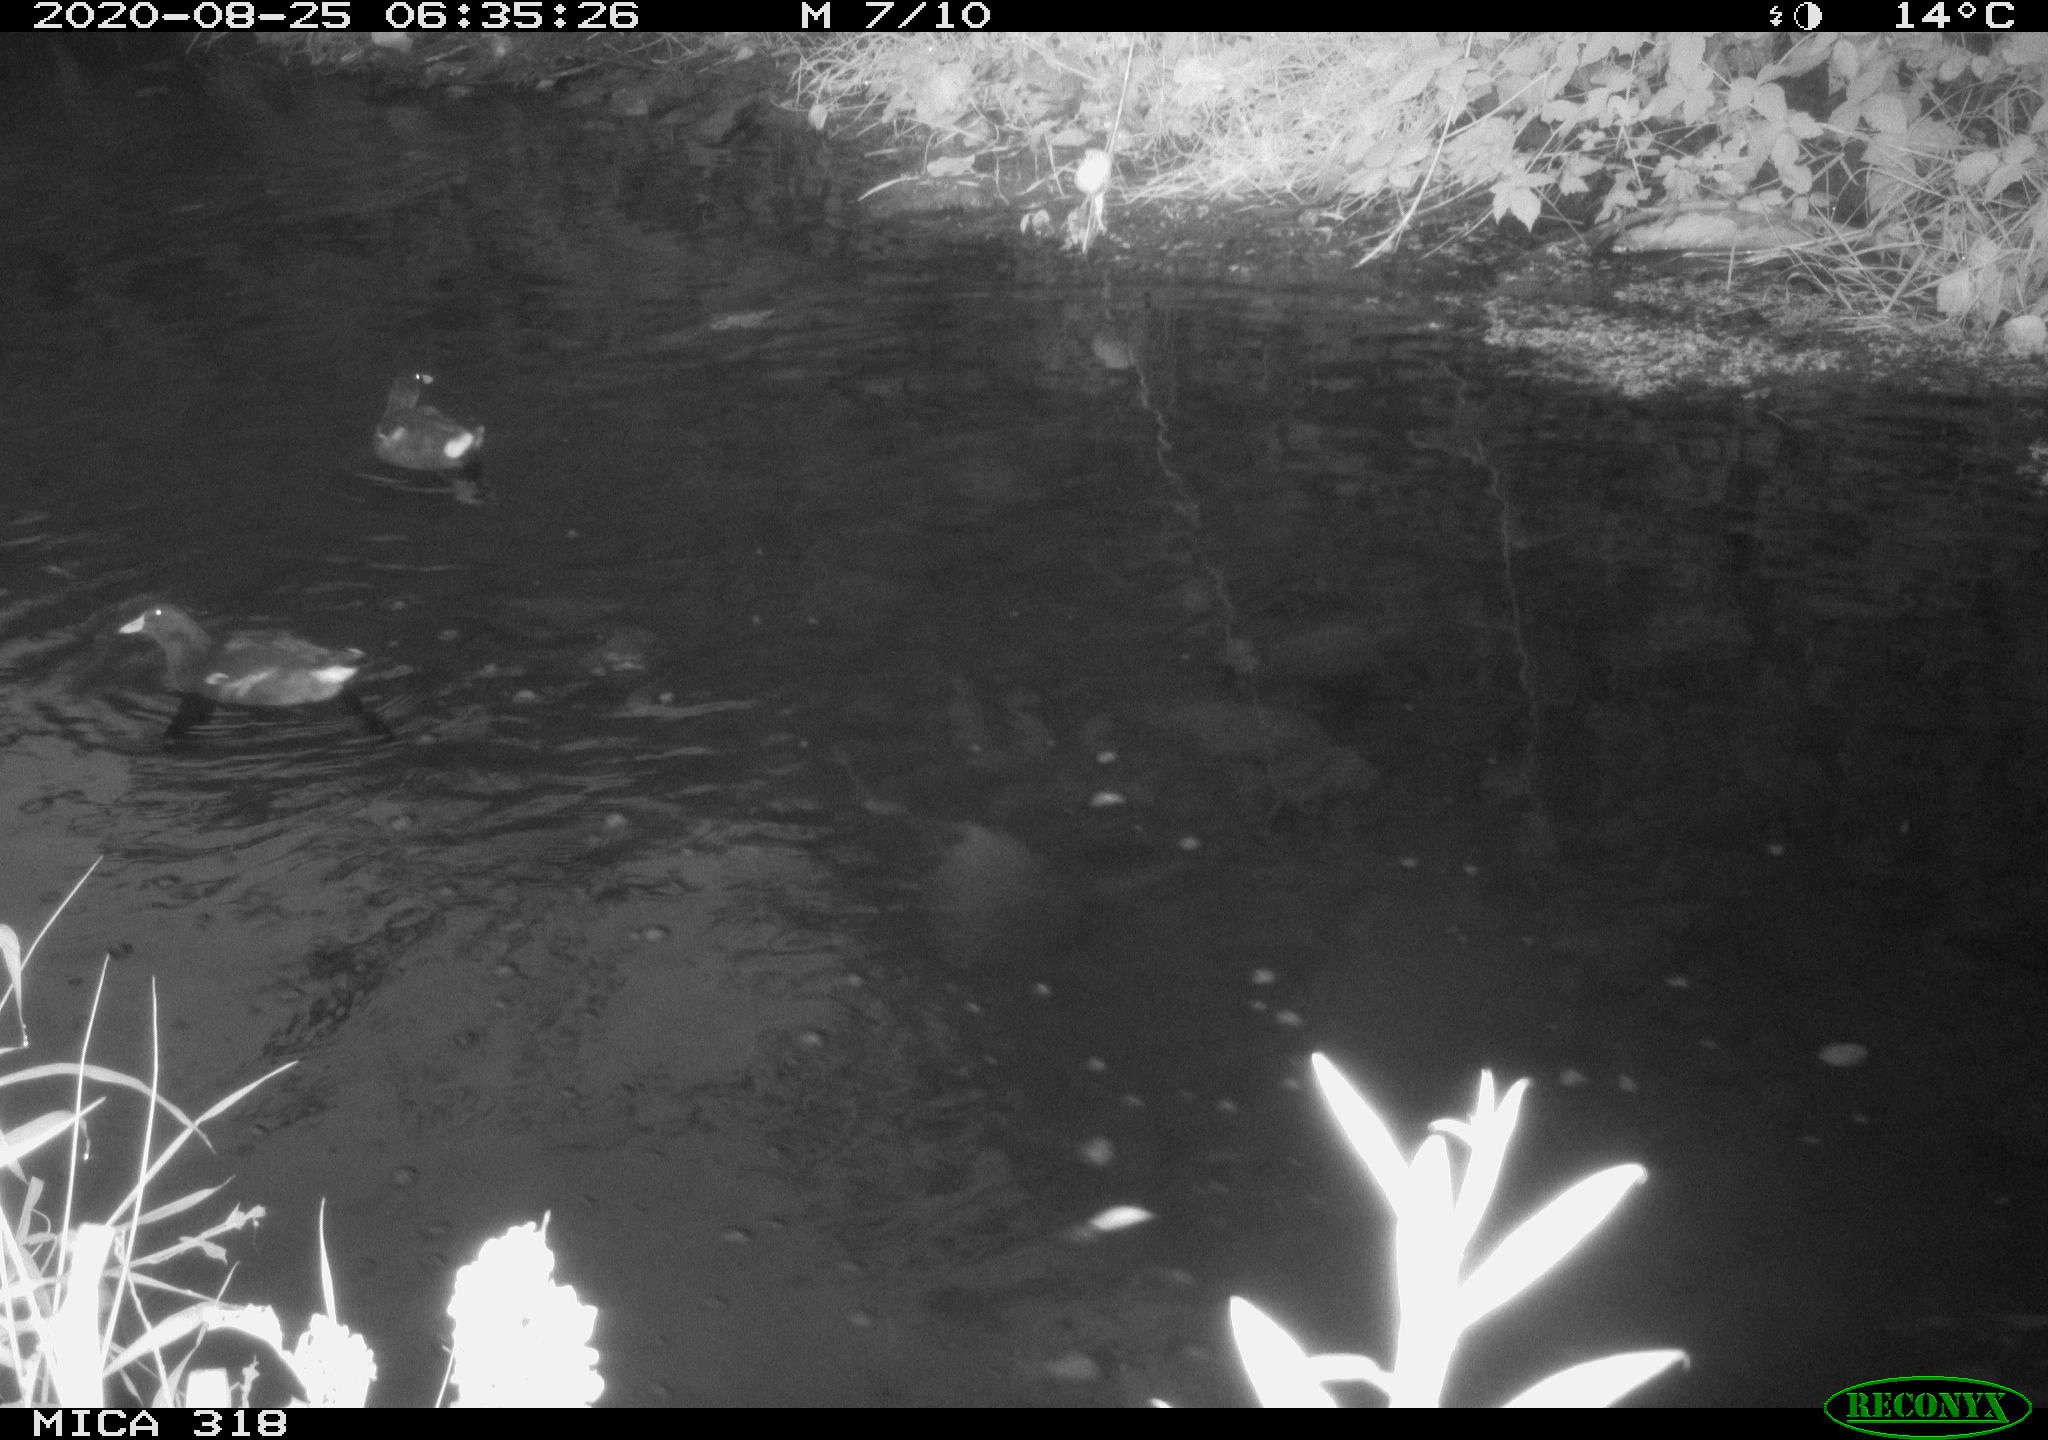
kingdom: Animalia
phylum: Chordata
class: Aves
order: Gruiformes
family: Rallidae
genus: Gallinula
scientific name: Gallinula chloropus
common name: Common moorhen
